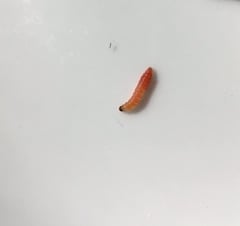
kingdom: Animalia
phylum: Arthropoda
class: Insecta
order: Lepidoptera
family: Tortricidae
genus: Grapholita
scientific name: Grapholita funebrana
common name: Plum fruit moth
